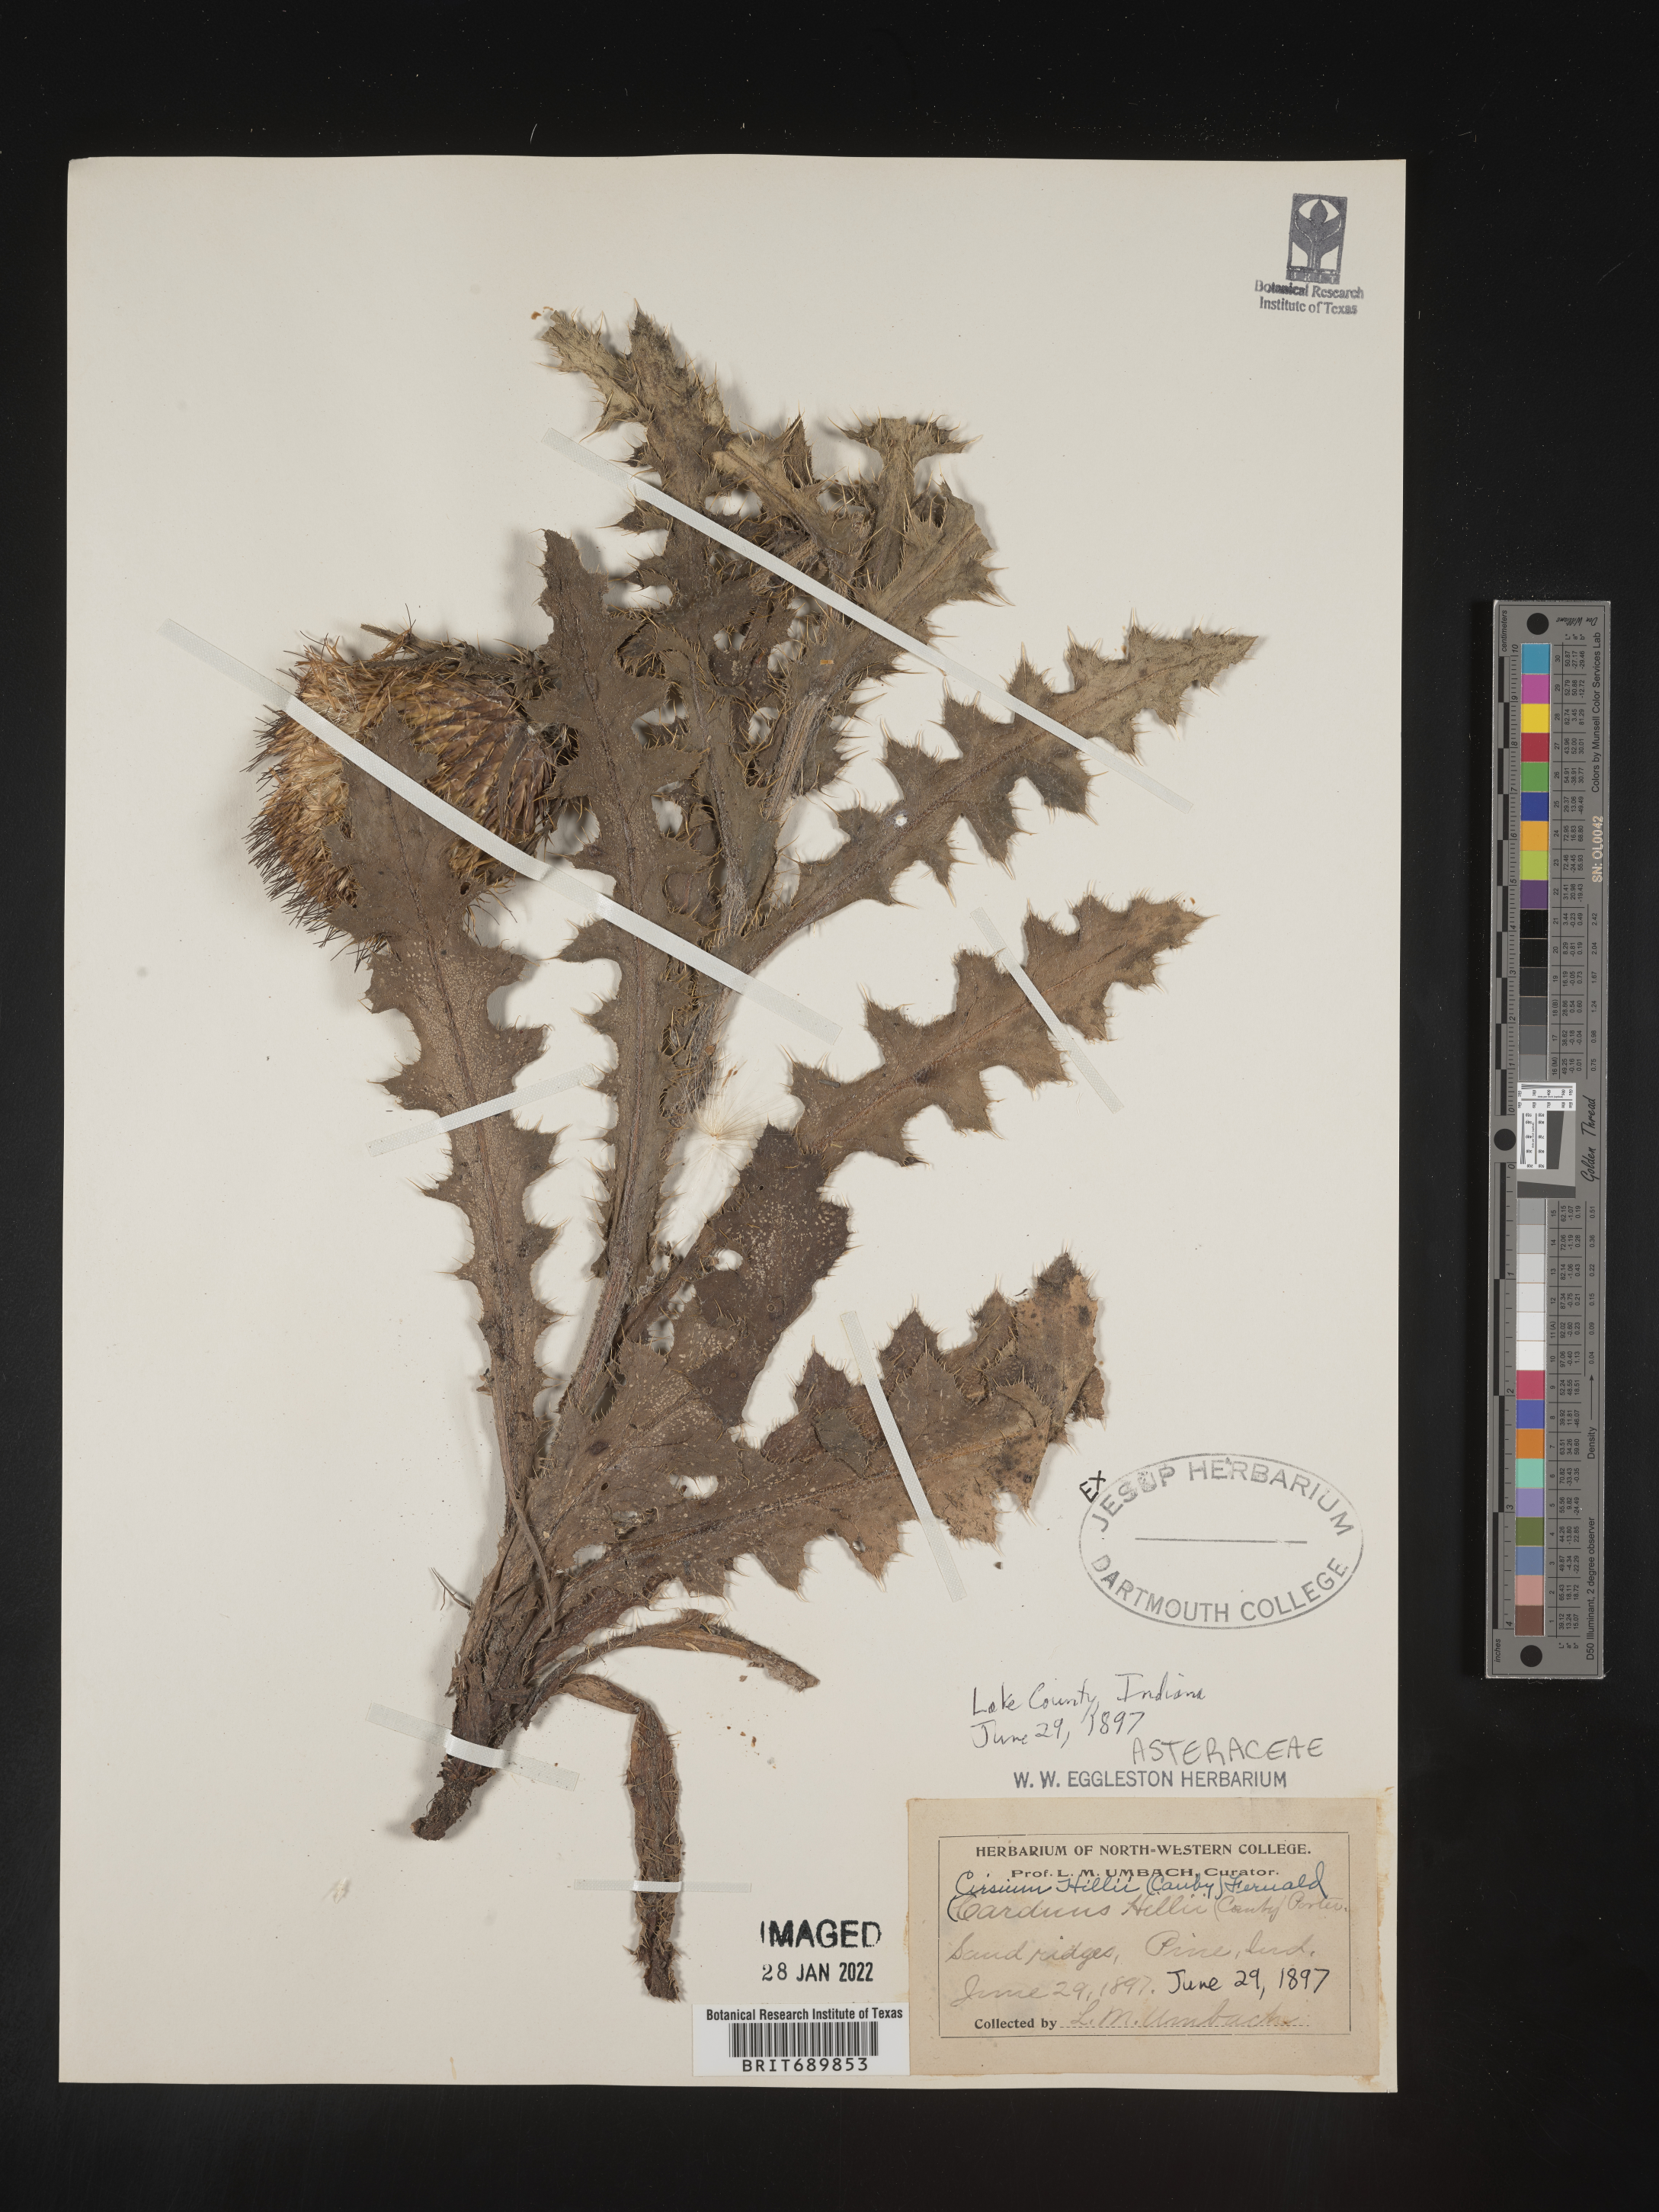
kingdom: Plantae
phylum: Tracheophyta
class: Magnoliopsida
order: Asterales
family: Asteraceae
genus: Cirsium
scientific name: Cirsium pumilum
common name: Pasture thistle
